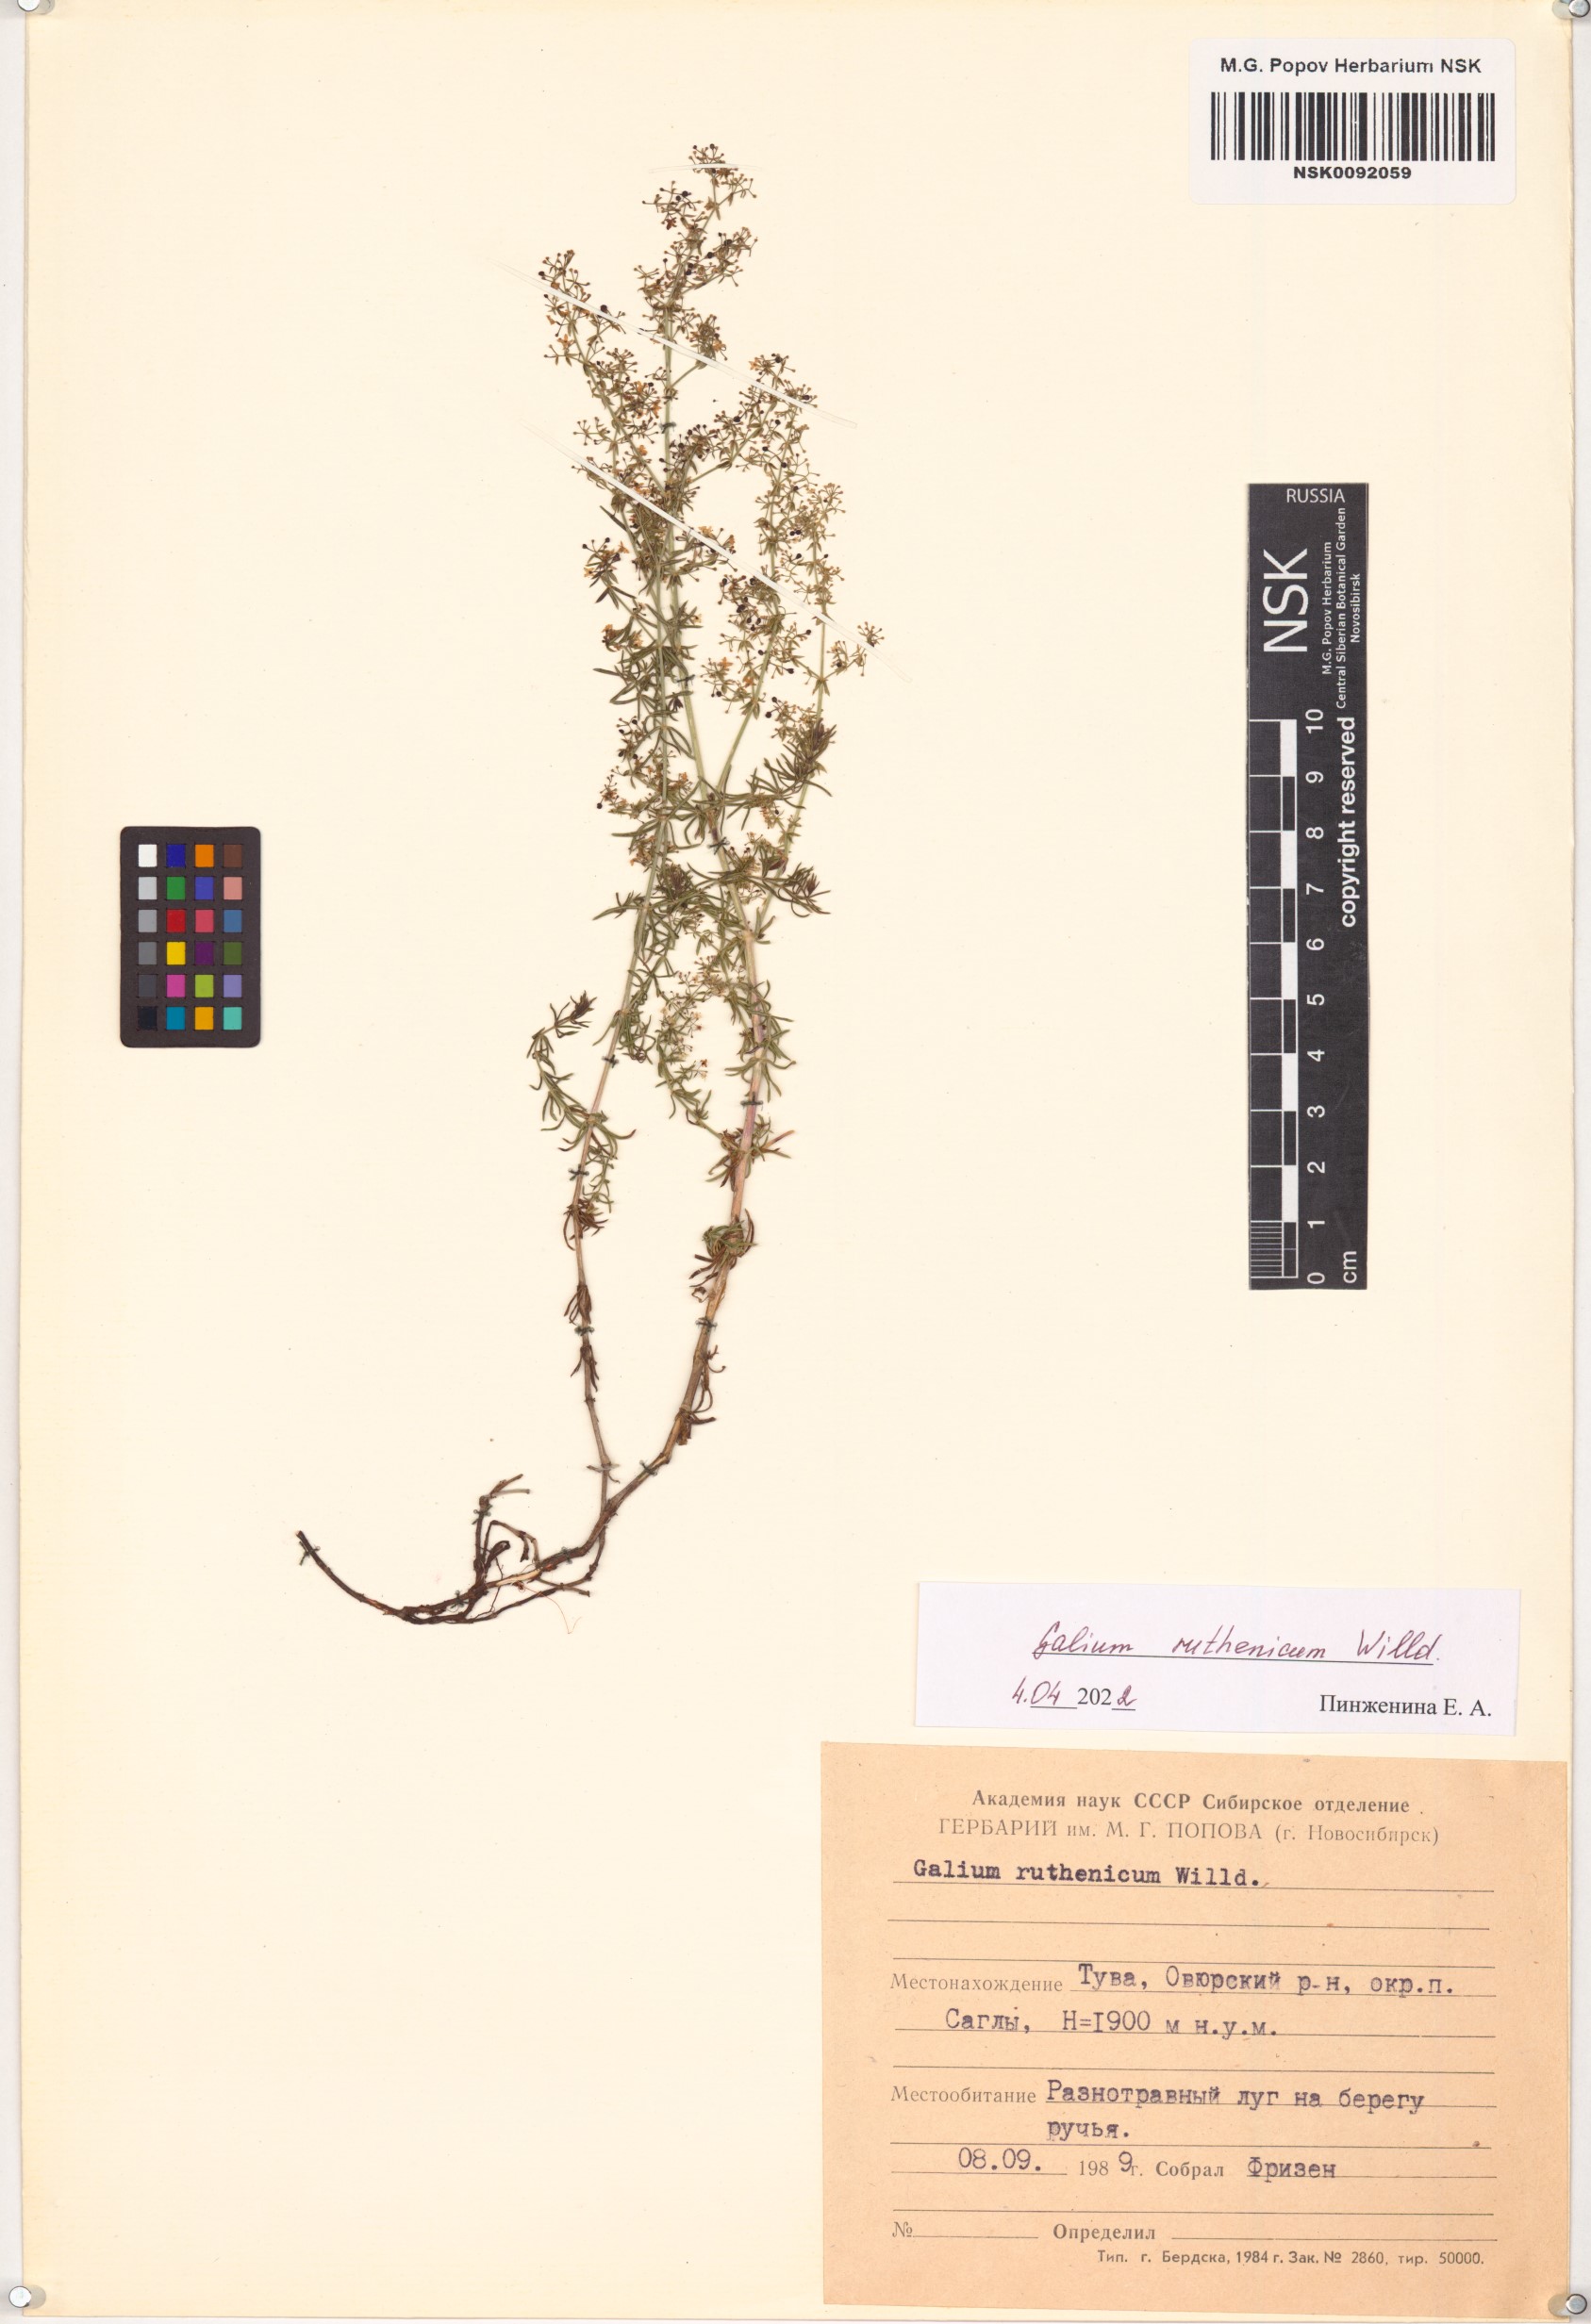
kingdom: Plantae
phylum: Tracheophyta
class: Magnoliopsida
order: Gentianales
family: Rubiaceae
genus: Galium
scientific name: Galium verum
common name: Lady's bedstraw
